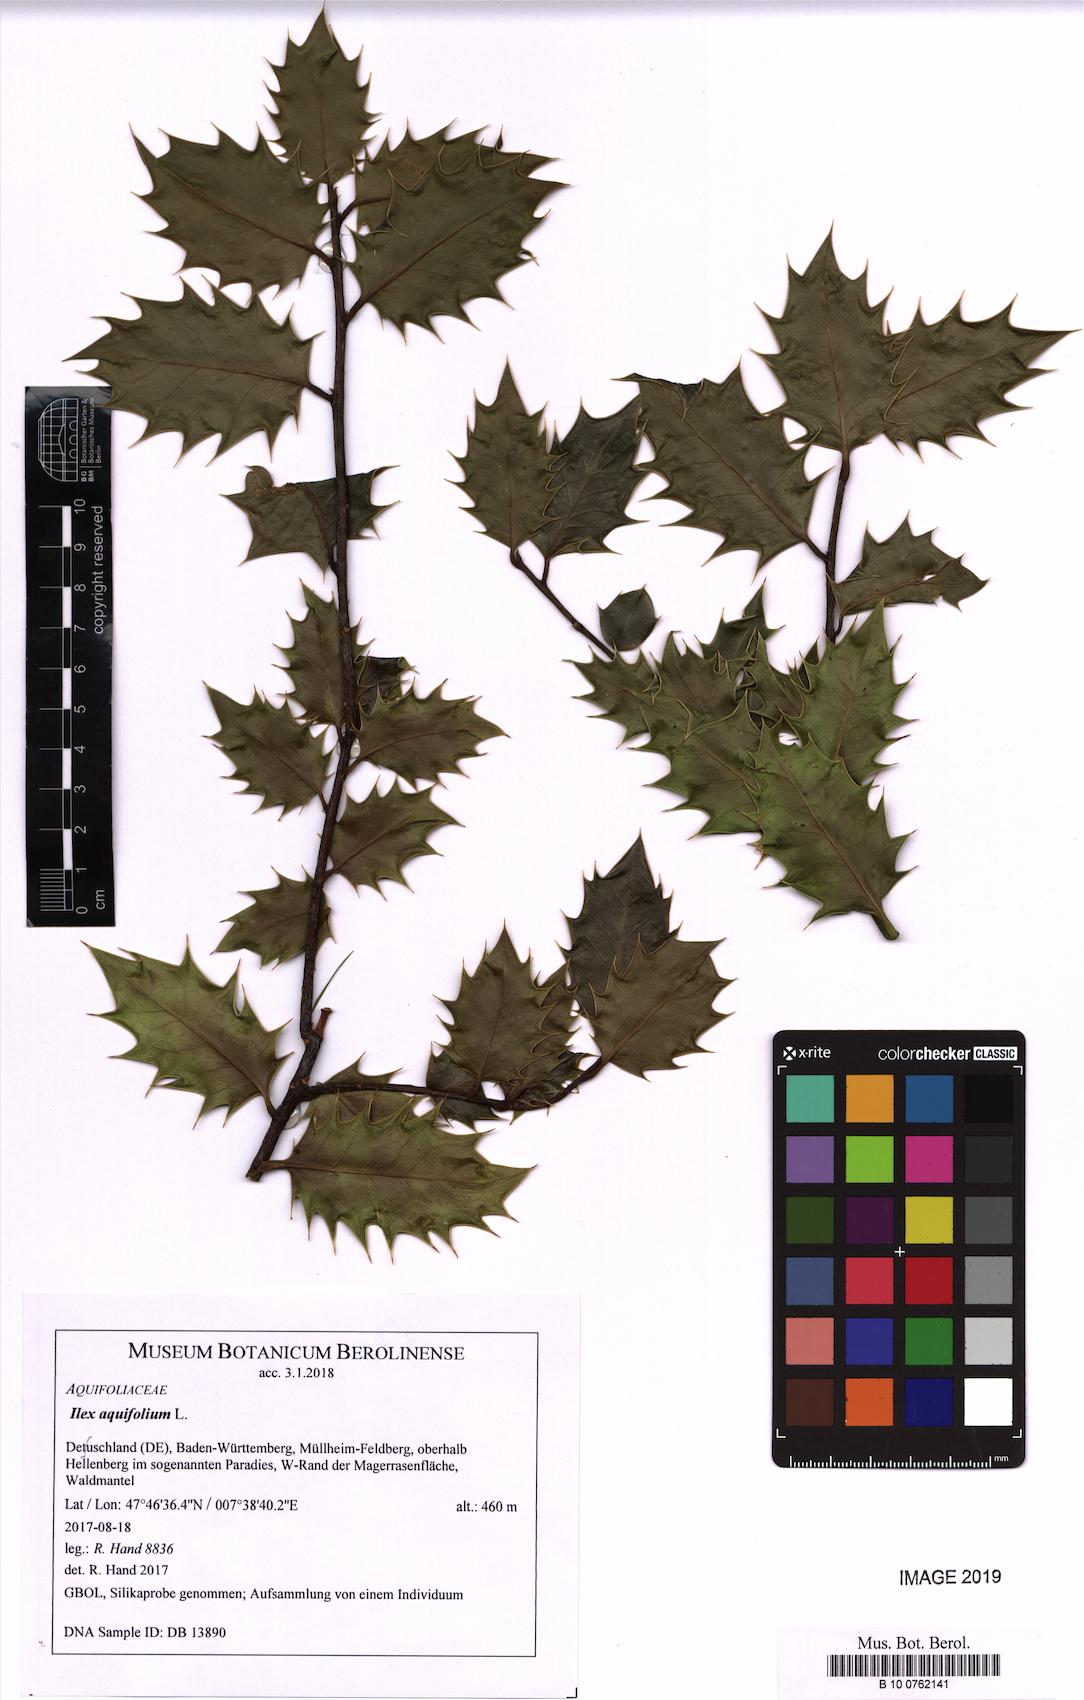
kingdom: Plantae
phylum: Tracheophyta
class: Magnoliopsida
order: Aquifoliales
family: Aquifoliaceae
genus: Ilex
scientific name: Ilex aquifolium
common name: English holly
